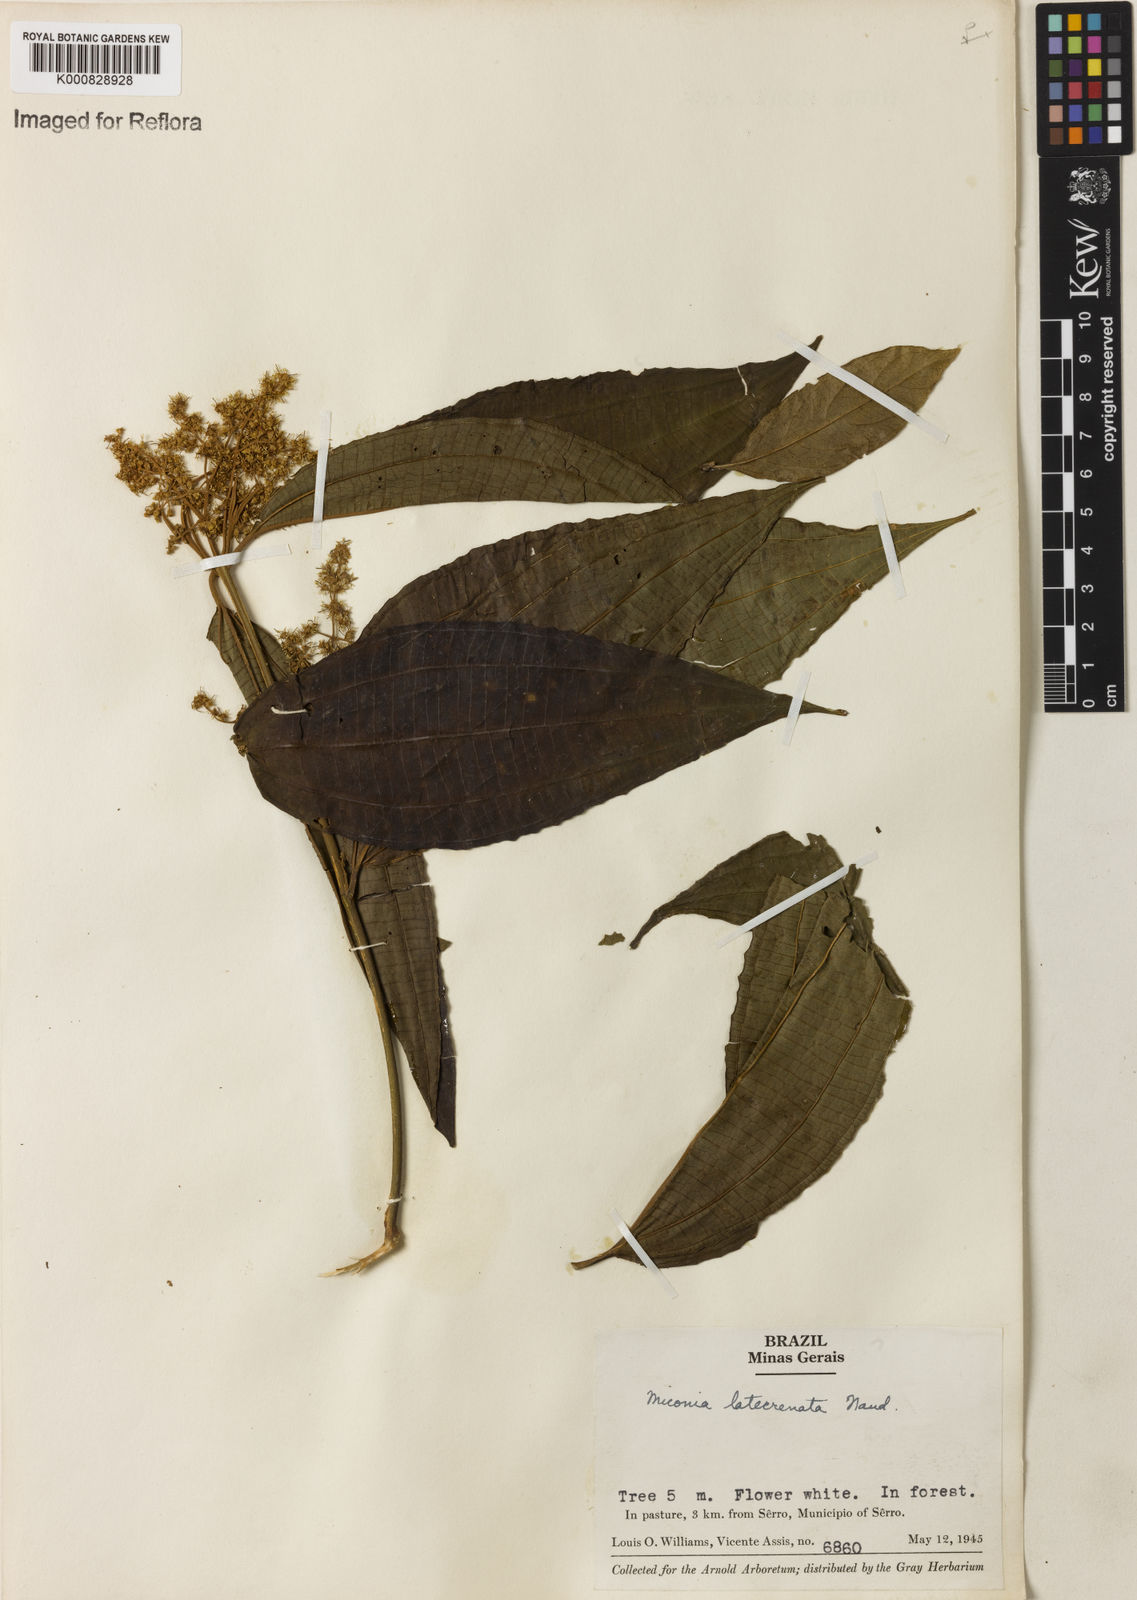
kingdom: Plantae
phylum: Tracheophyta
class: Magnoliopsida
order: Myrtales
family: Melastomataceae
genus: Miconia
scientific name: Miconia latecrenata
